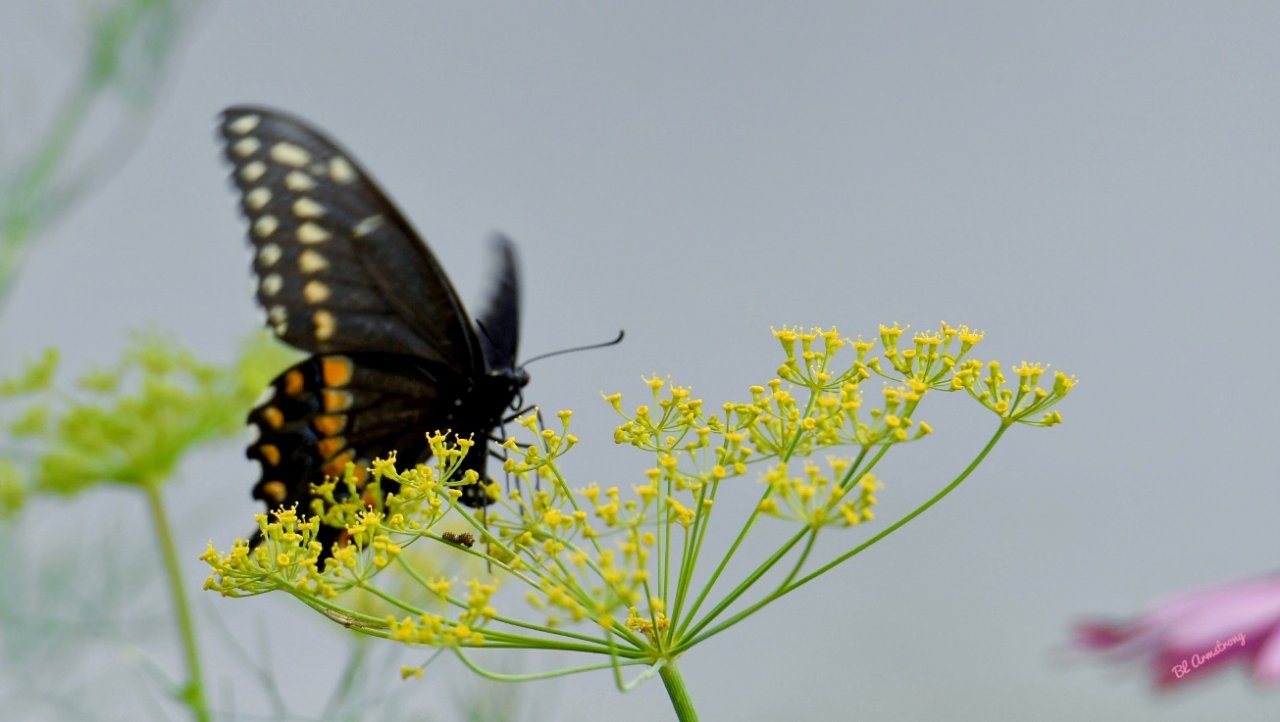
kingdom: Animalia
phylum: Arthropoda
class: Insecta
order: Lepidoptera
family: Papilionidae
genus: Papilio
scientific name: Papilio polyxenes
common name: Black Swallowtail
